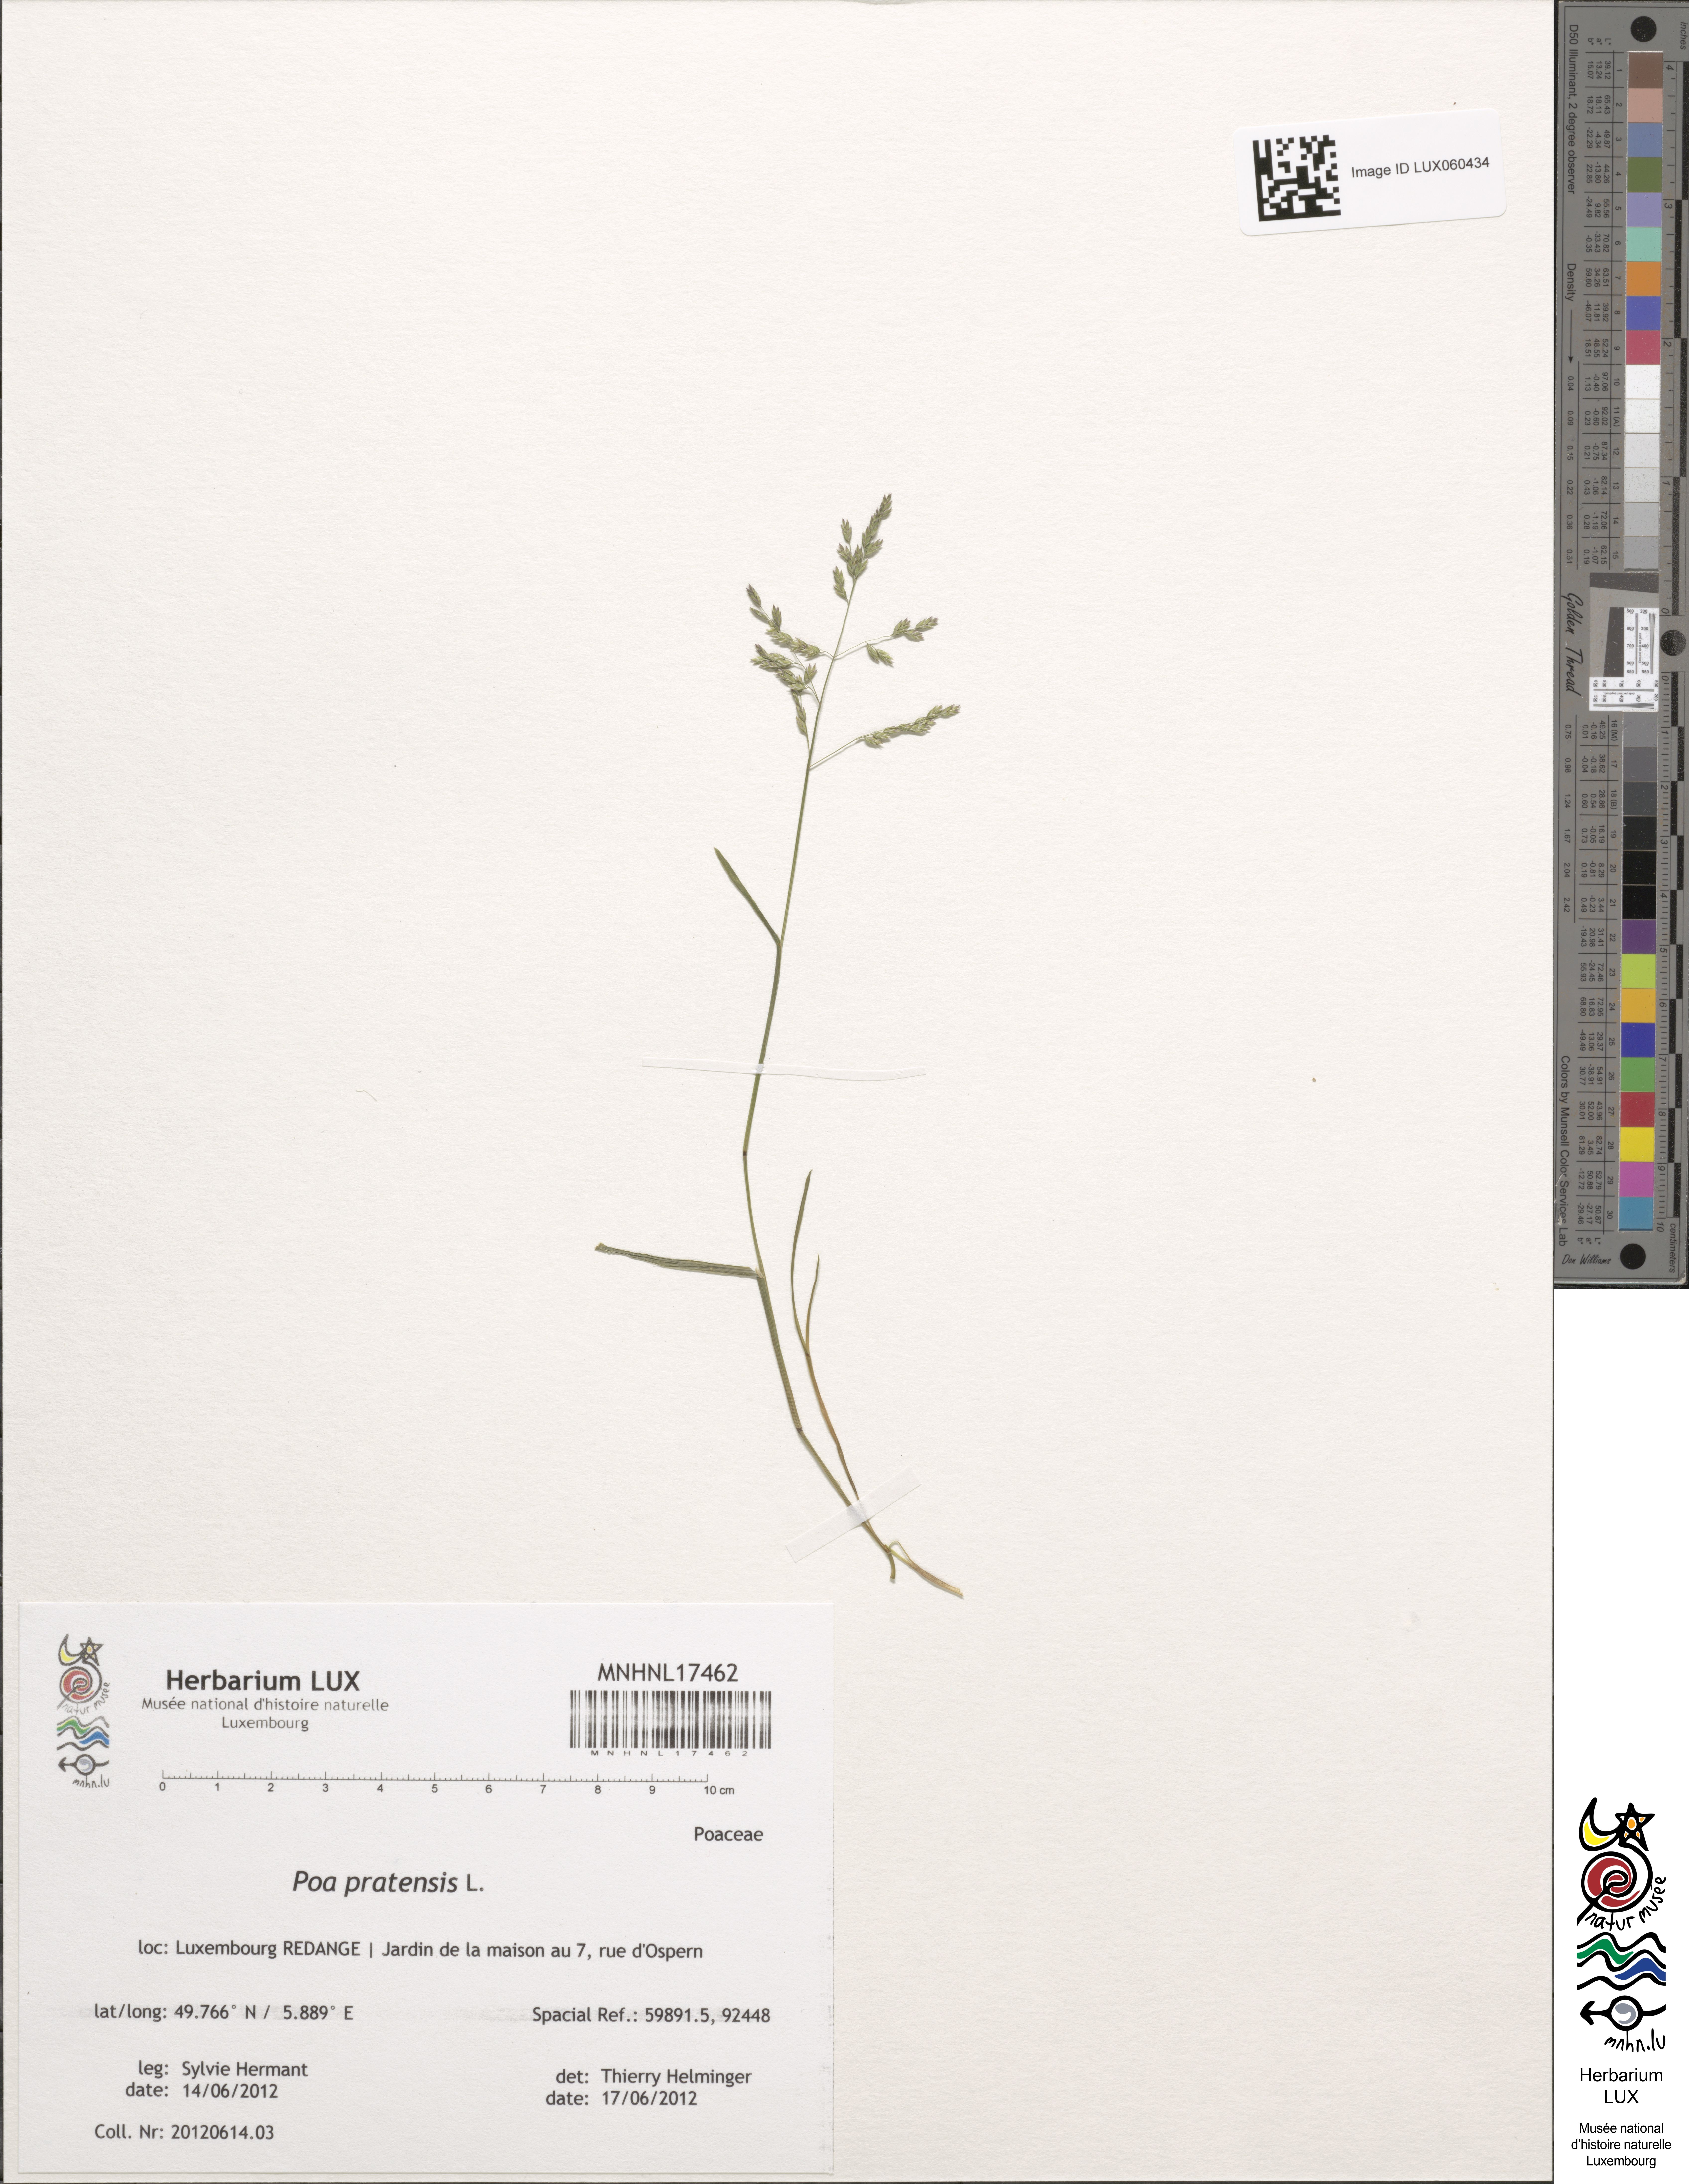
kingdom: Plantae
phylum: Tracheophyta
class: Liliopsida
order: Poales
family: Poaceae
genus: Poa
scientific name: Poa pratensis
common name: Kentucky bluegrass
